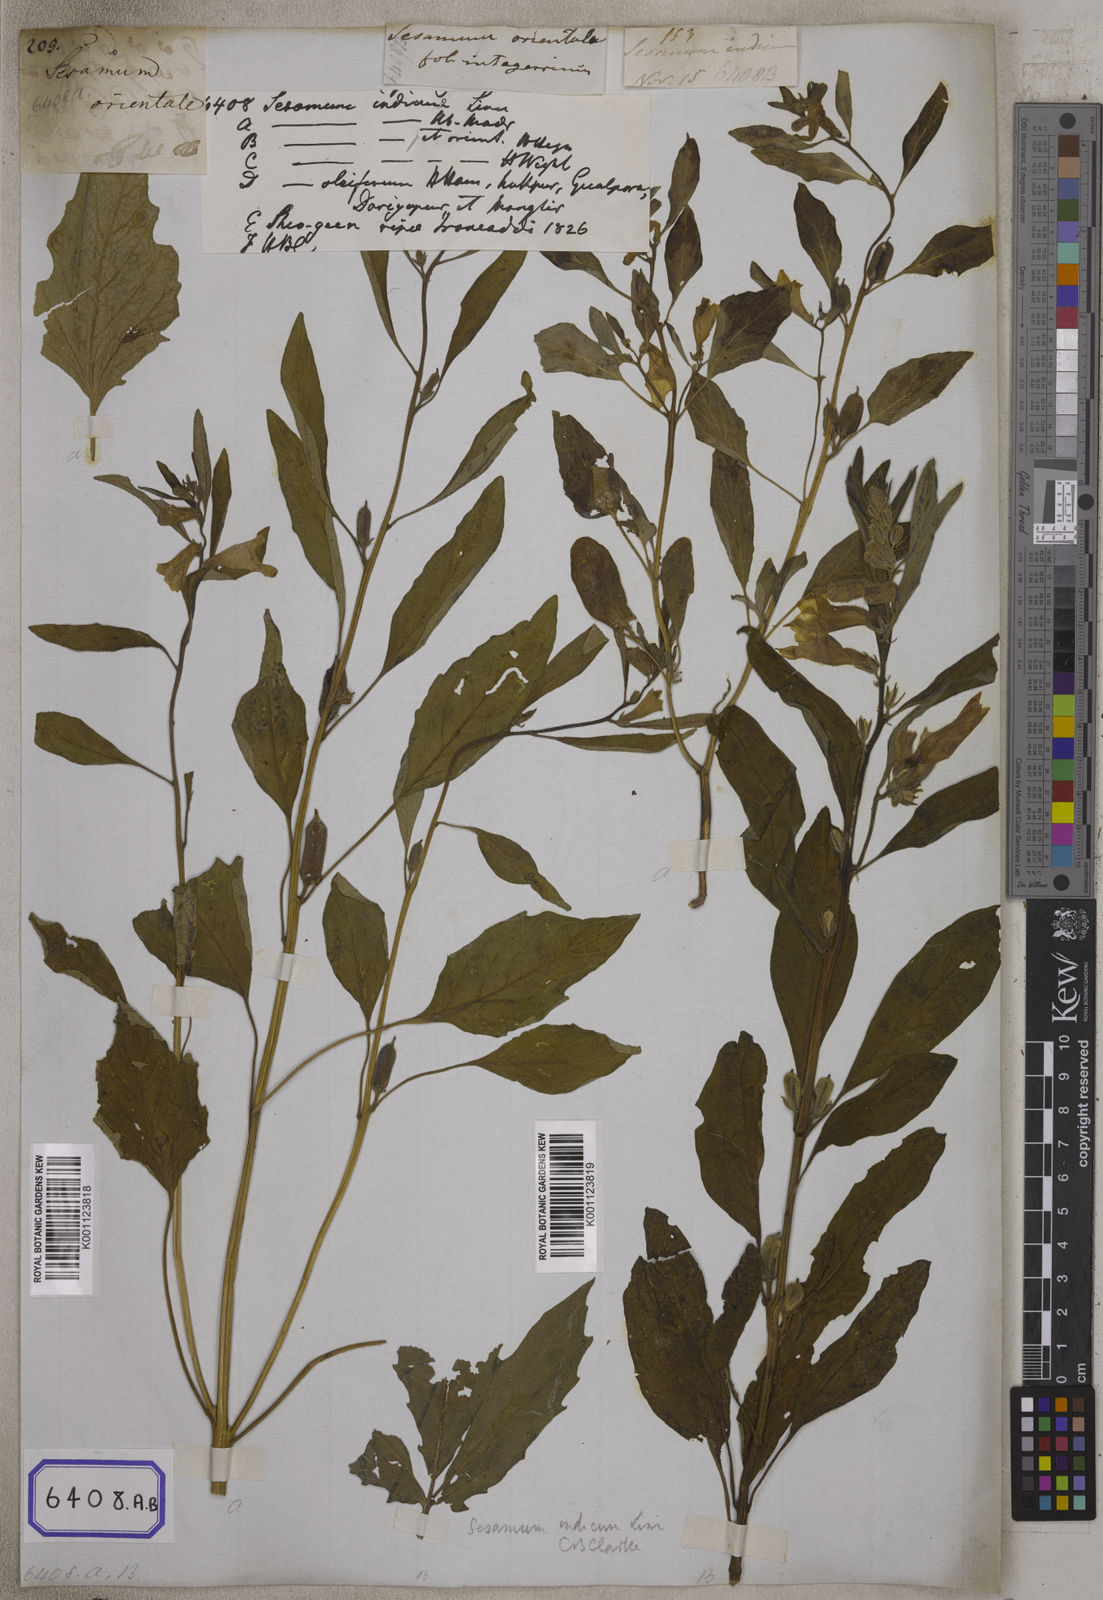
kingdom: Plantae
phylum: Tracheophyta
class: Magnoliopsida
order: Lamiales
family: Pedaliaceae
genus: Sesamum
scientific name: Sesamum indicum
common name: Sesame
